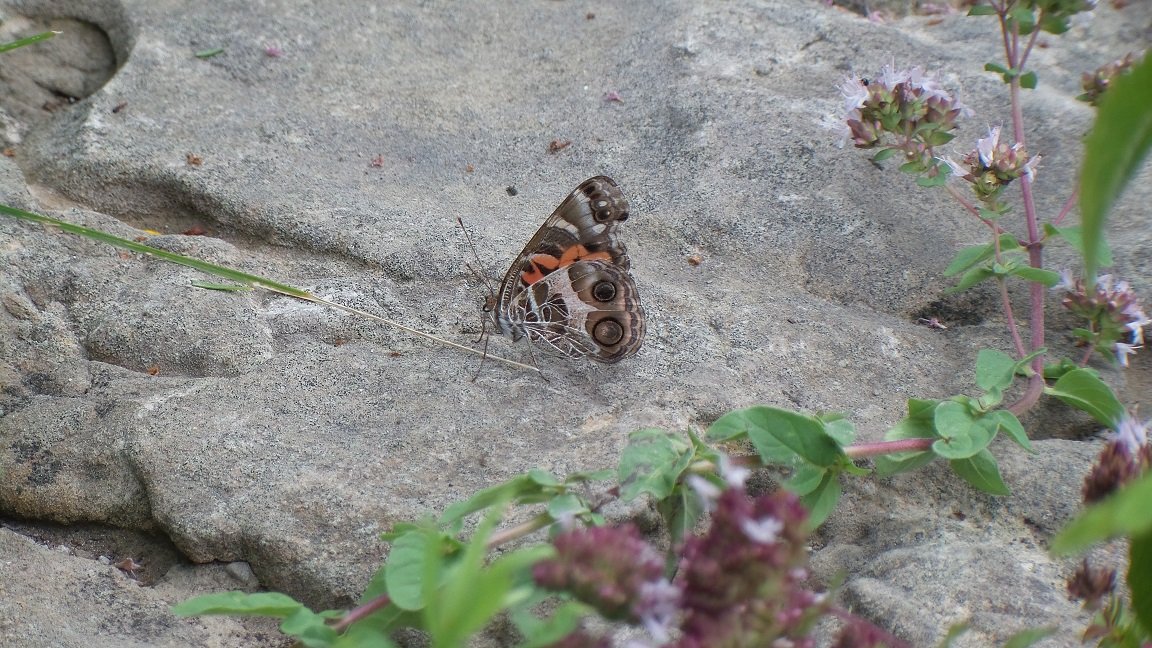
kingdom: Animalia
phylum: Arthropoda
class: Insecta
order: Lepidoptera
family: Nymphalidae
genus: Vanessa
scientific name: Vanessa virginiensis
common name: American Lady
